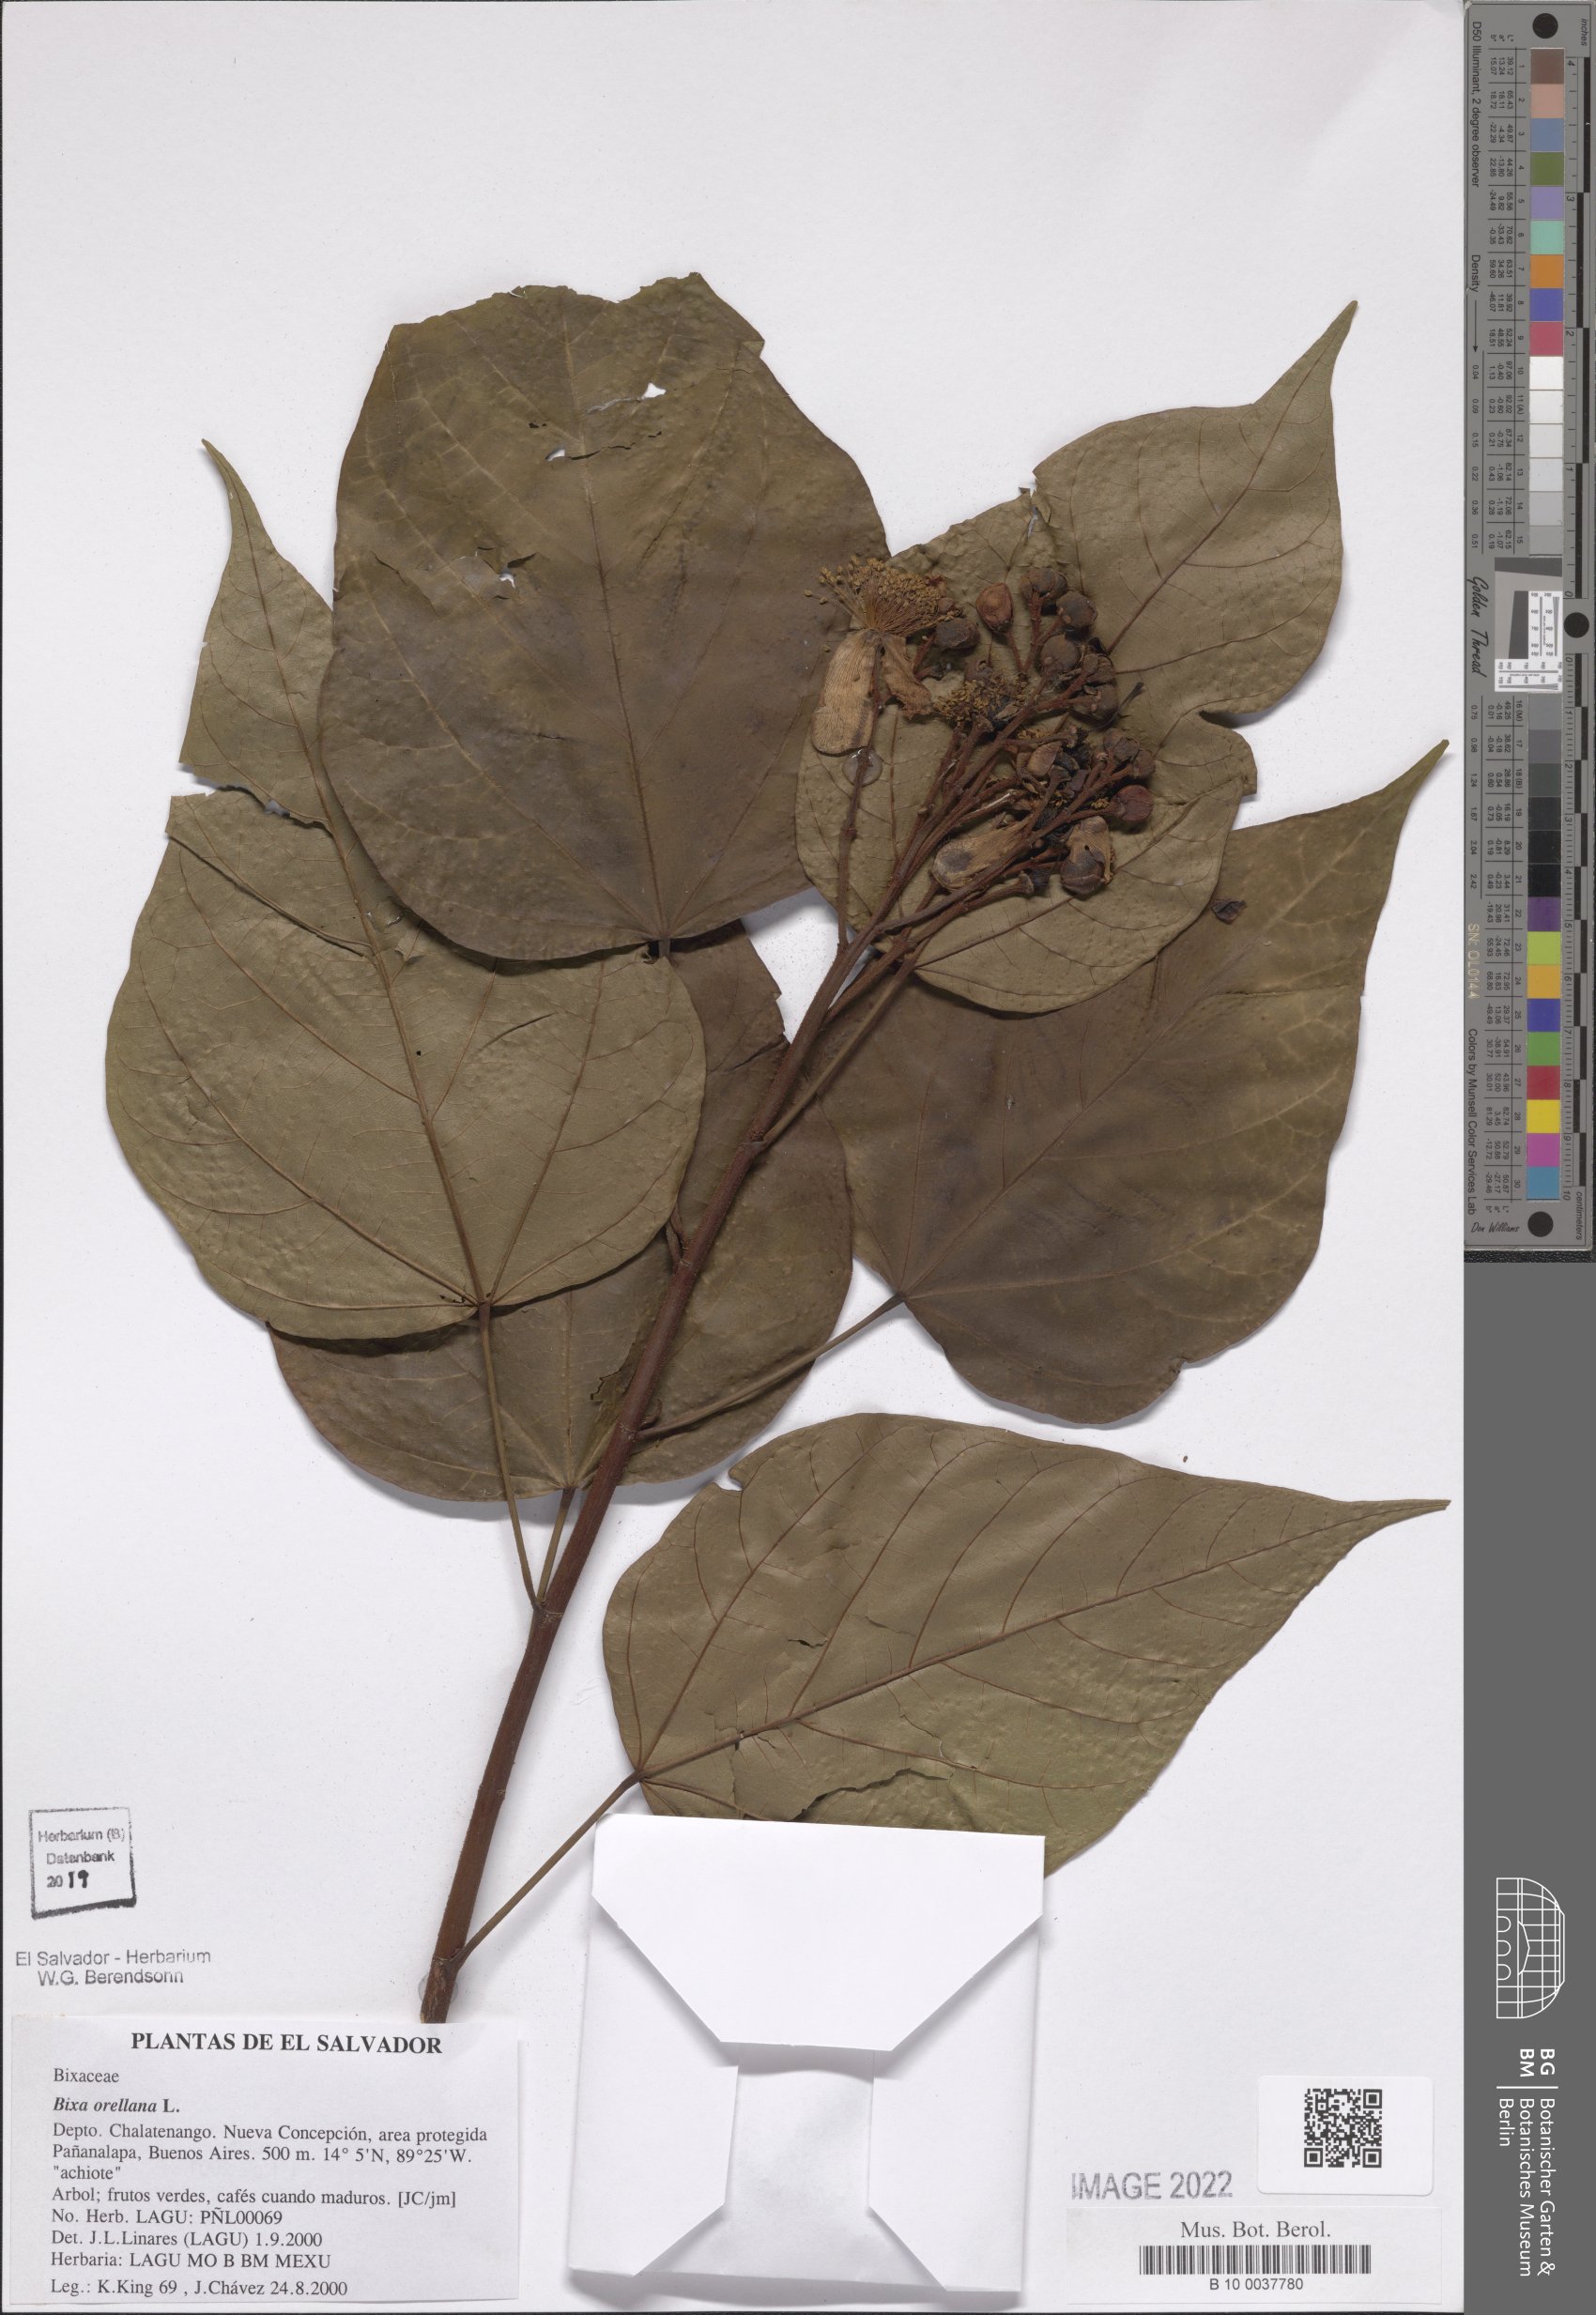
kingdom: Plantae
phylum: Tracheophyta
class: Magnoliopsida
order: Malvales
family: Bixaceae
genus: Bixa
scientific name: Bixa orellana
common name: Lipsticktree
